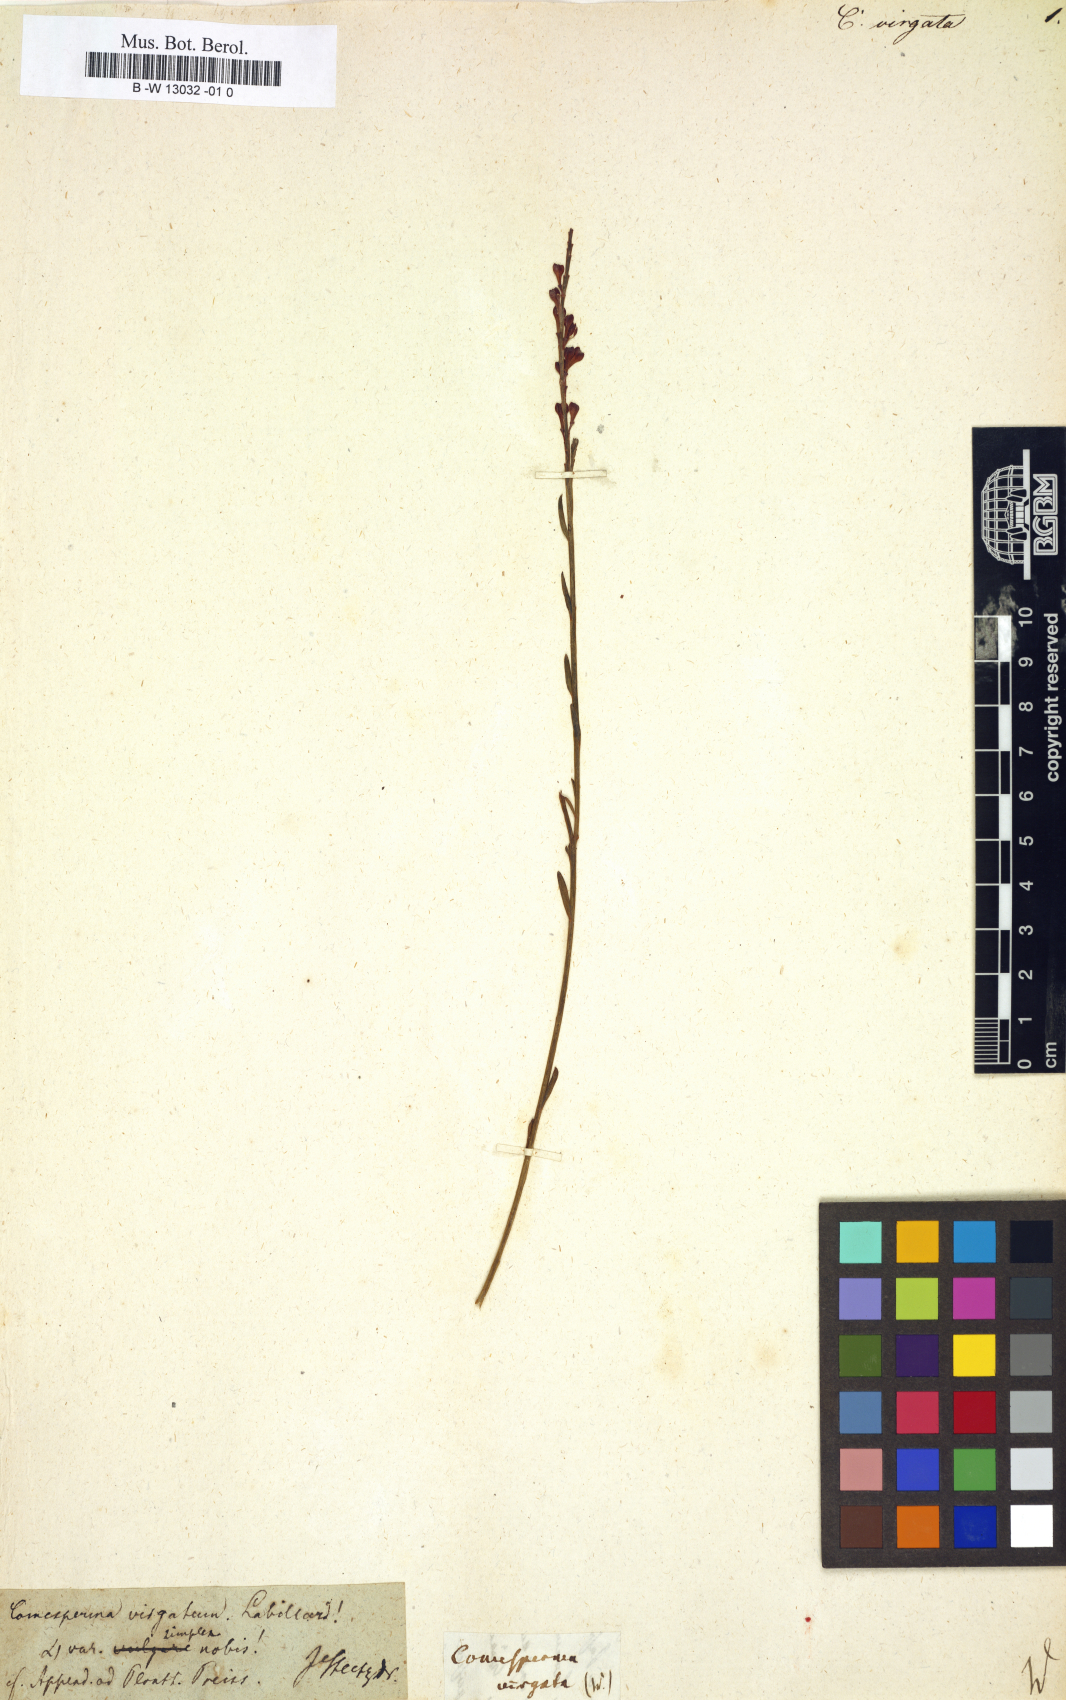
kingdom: Plantae
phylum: Tracheophyta
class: Magnoliopsida
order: Fabales
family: Polygalaceae
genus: Comesperma
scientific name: Comesperma virgatum
